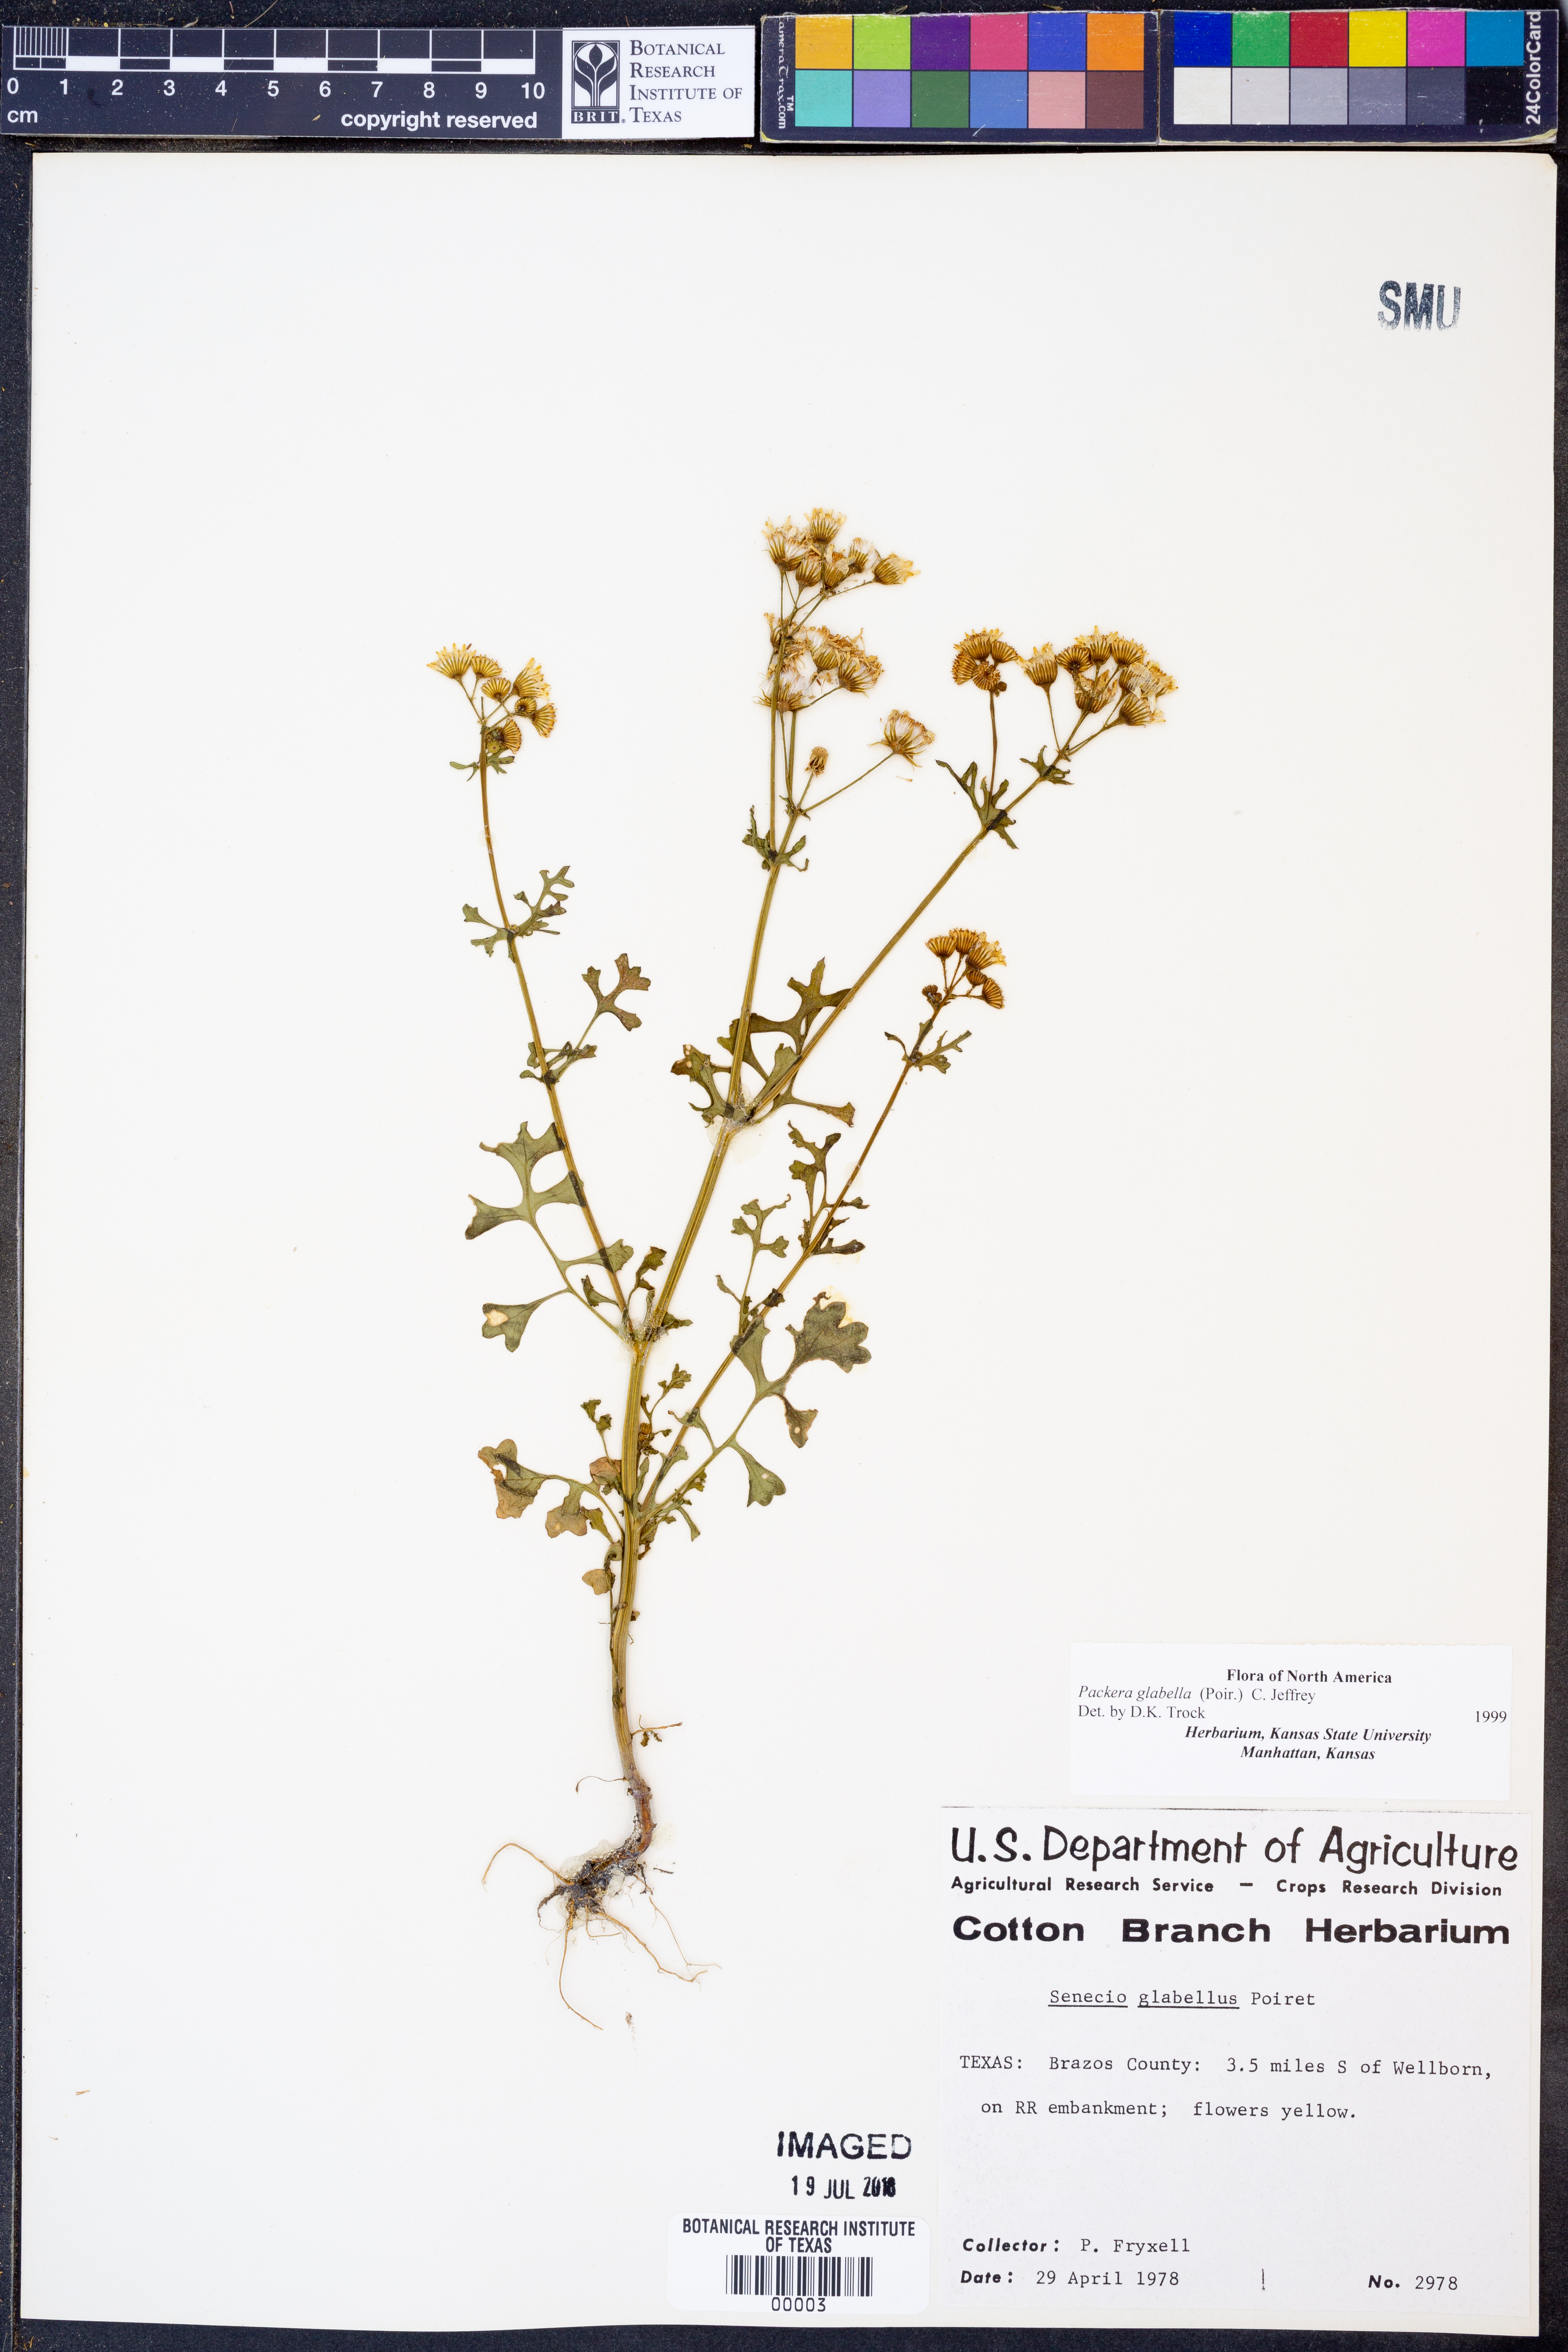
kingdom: Plantae
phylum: Tracheophyta
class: Magnoliopsida
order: Asterales
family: Asteraceae
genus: Packera
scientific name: Packera glabella
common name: Butterweed
